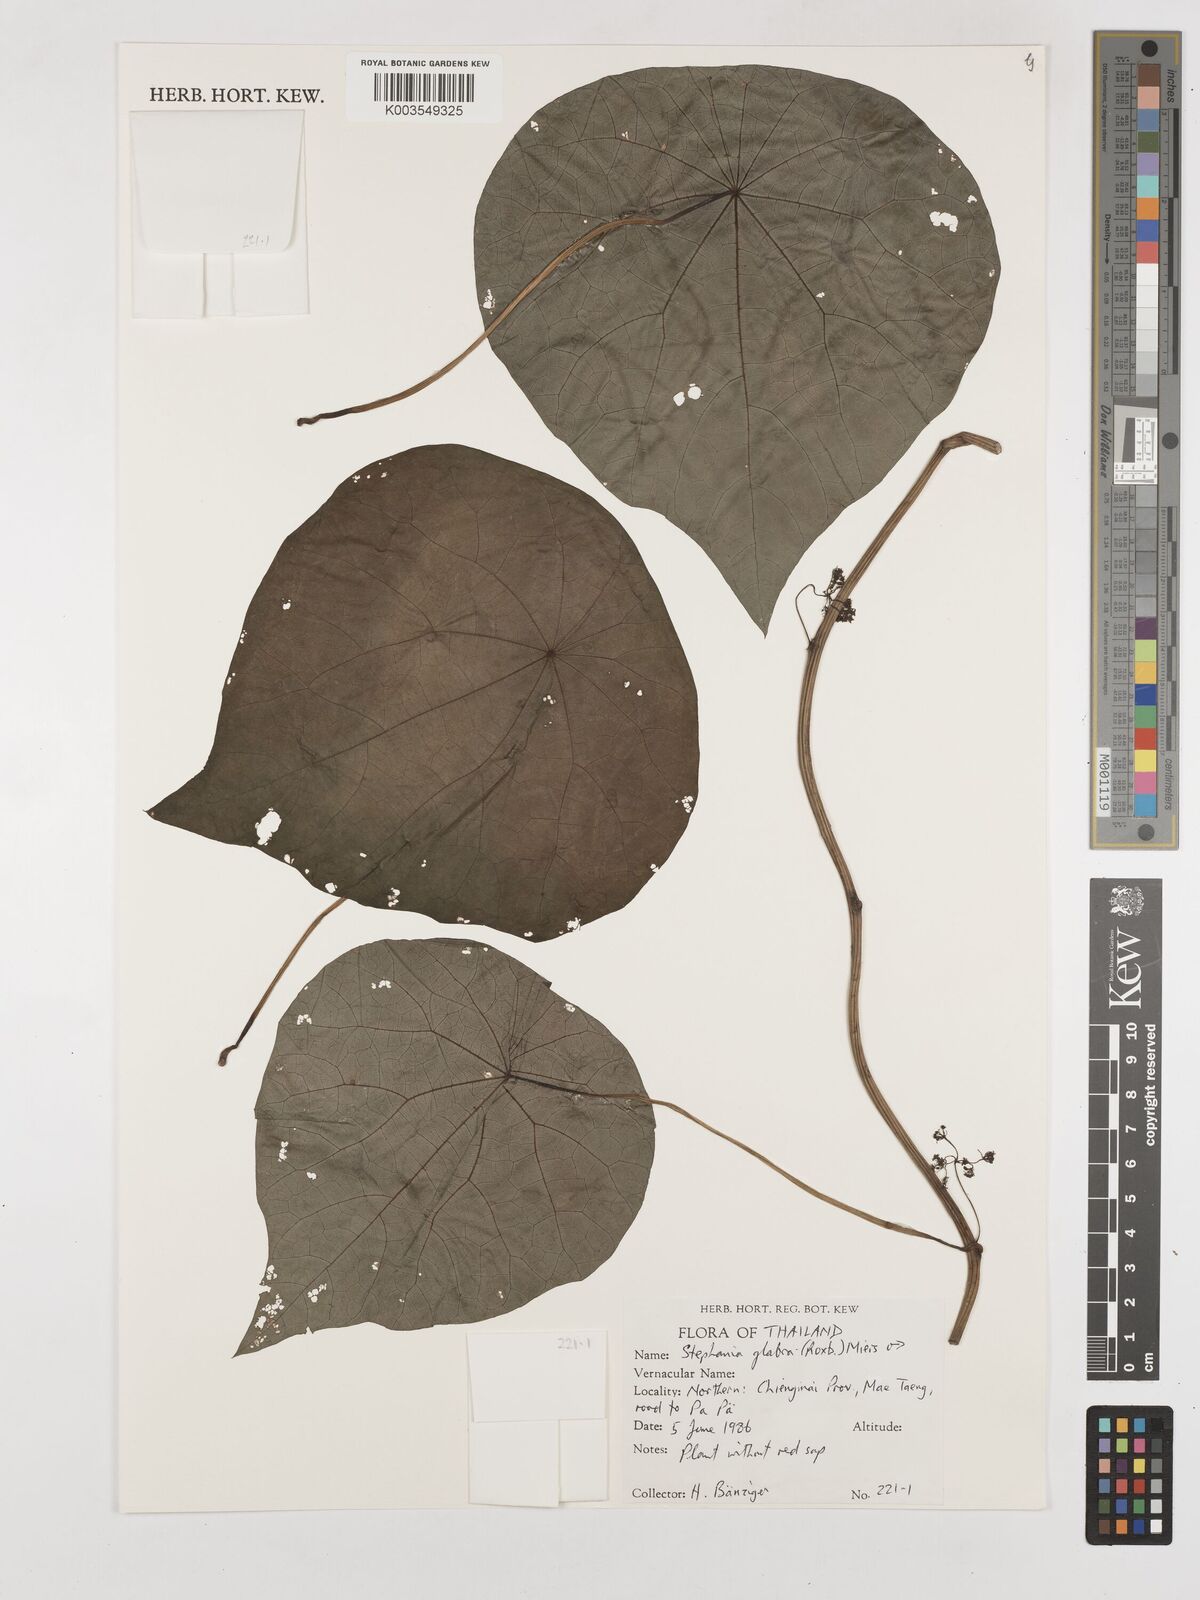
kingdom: Plantae
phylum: Tracheophyta
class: Magnoliopsida
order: Ranunculales
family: Menispermaceae
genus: Stephania
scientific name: Stephania rotunda
